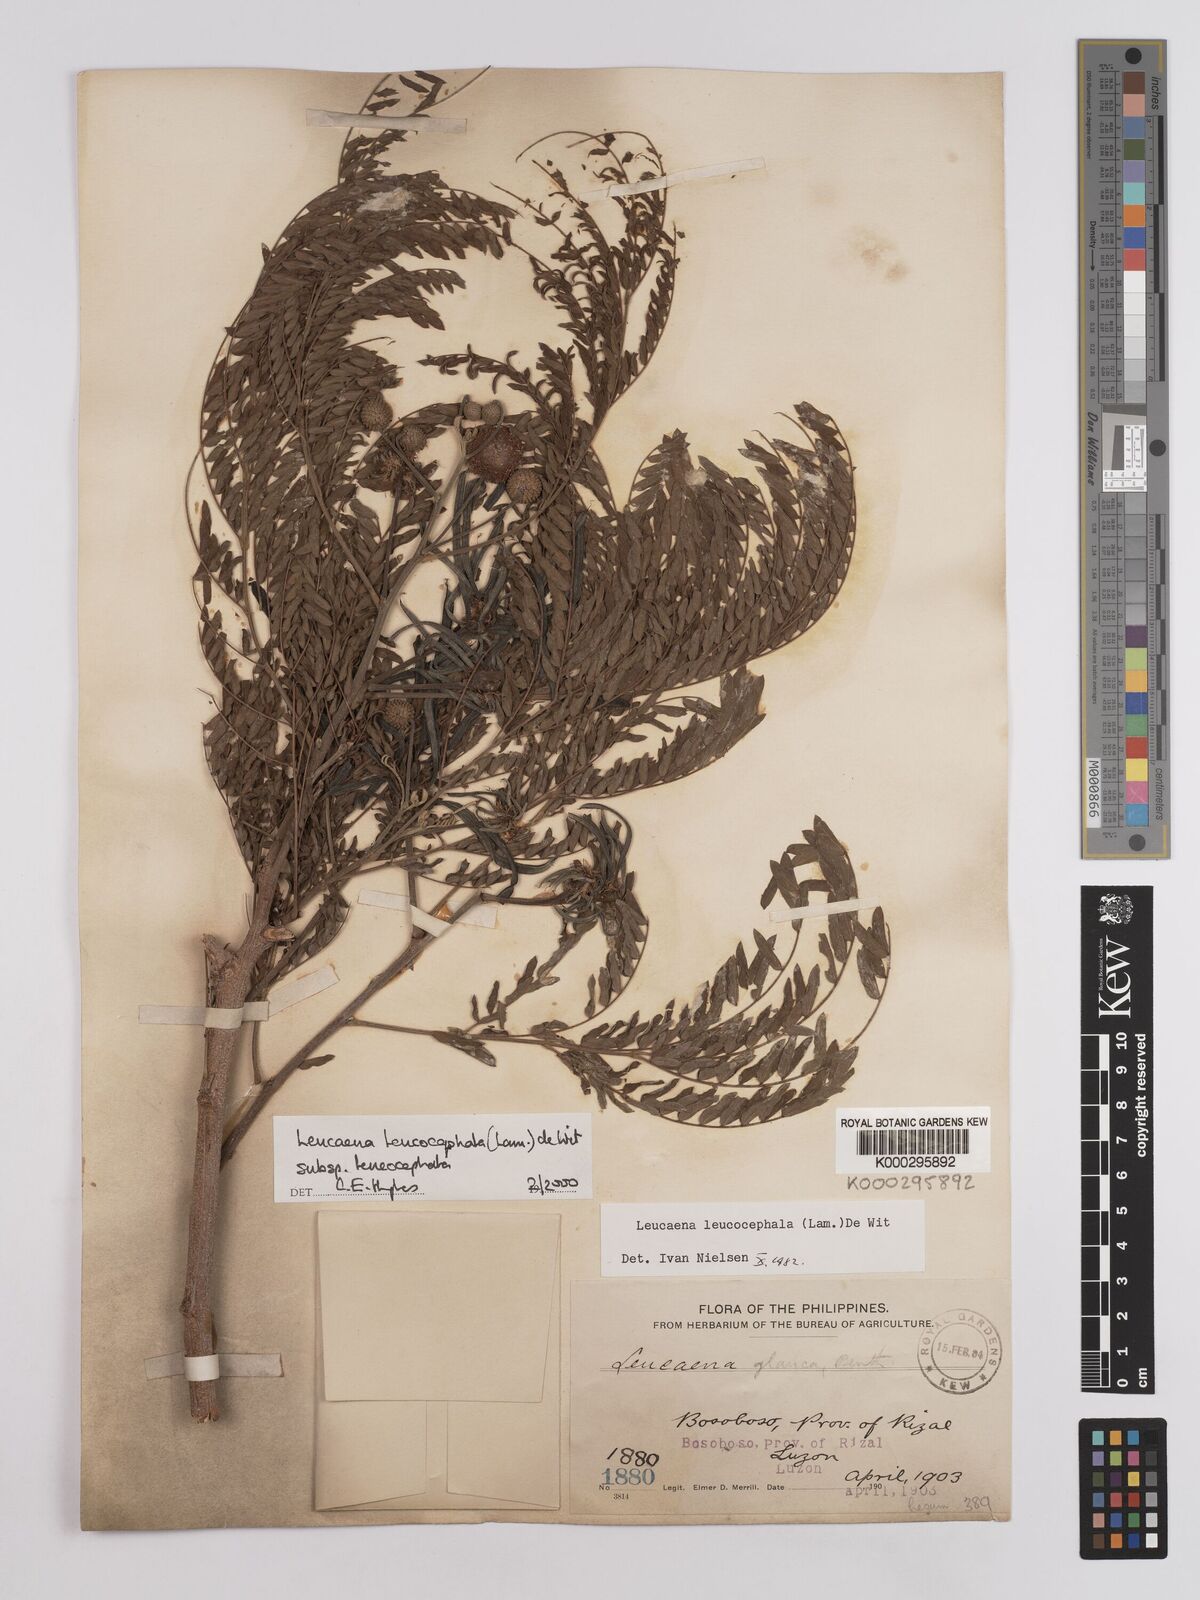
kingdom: Plantae
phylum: Tracheophyta
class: Magnoliopsida
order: Fabales
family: Fabaceae
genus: Leucaena
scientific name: Leucaena leucocephala
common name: White leadtree
